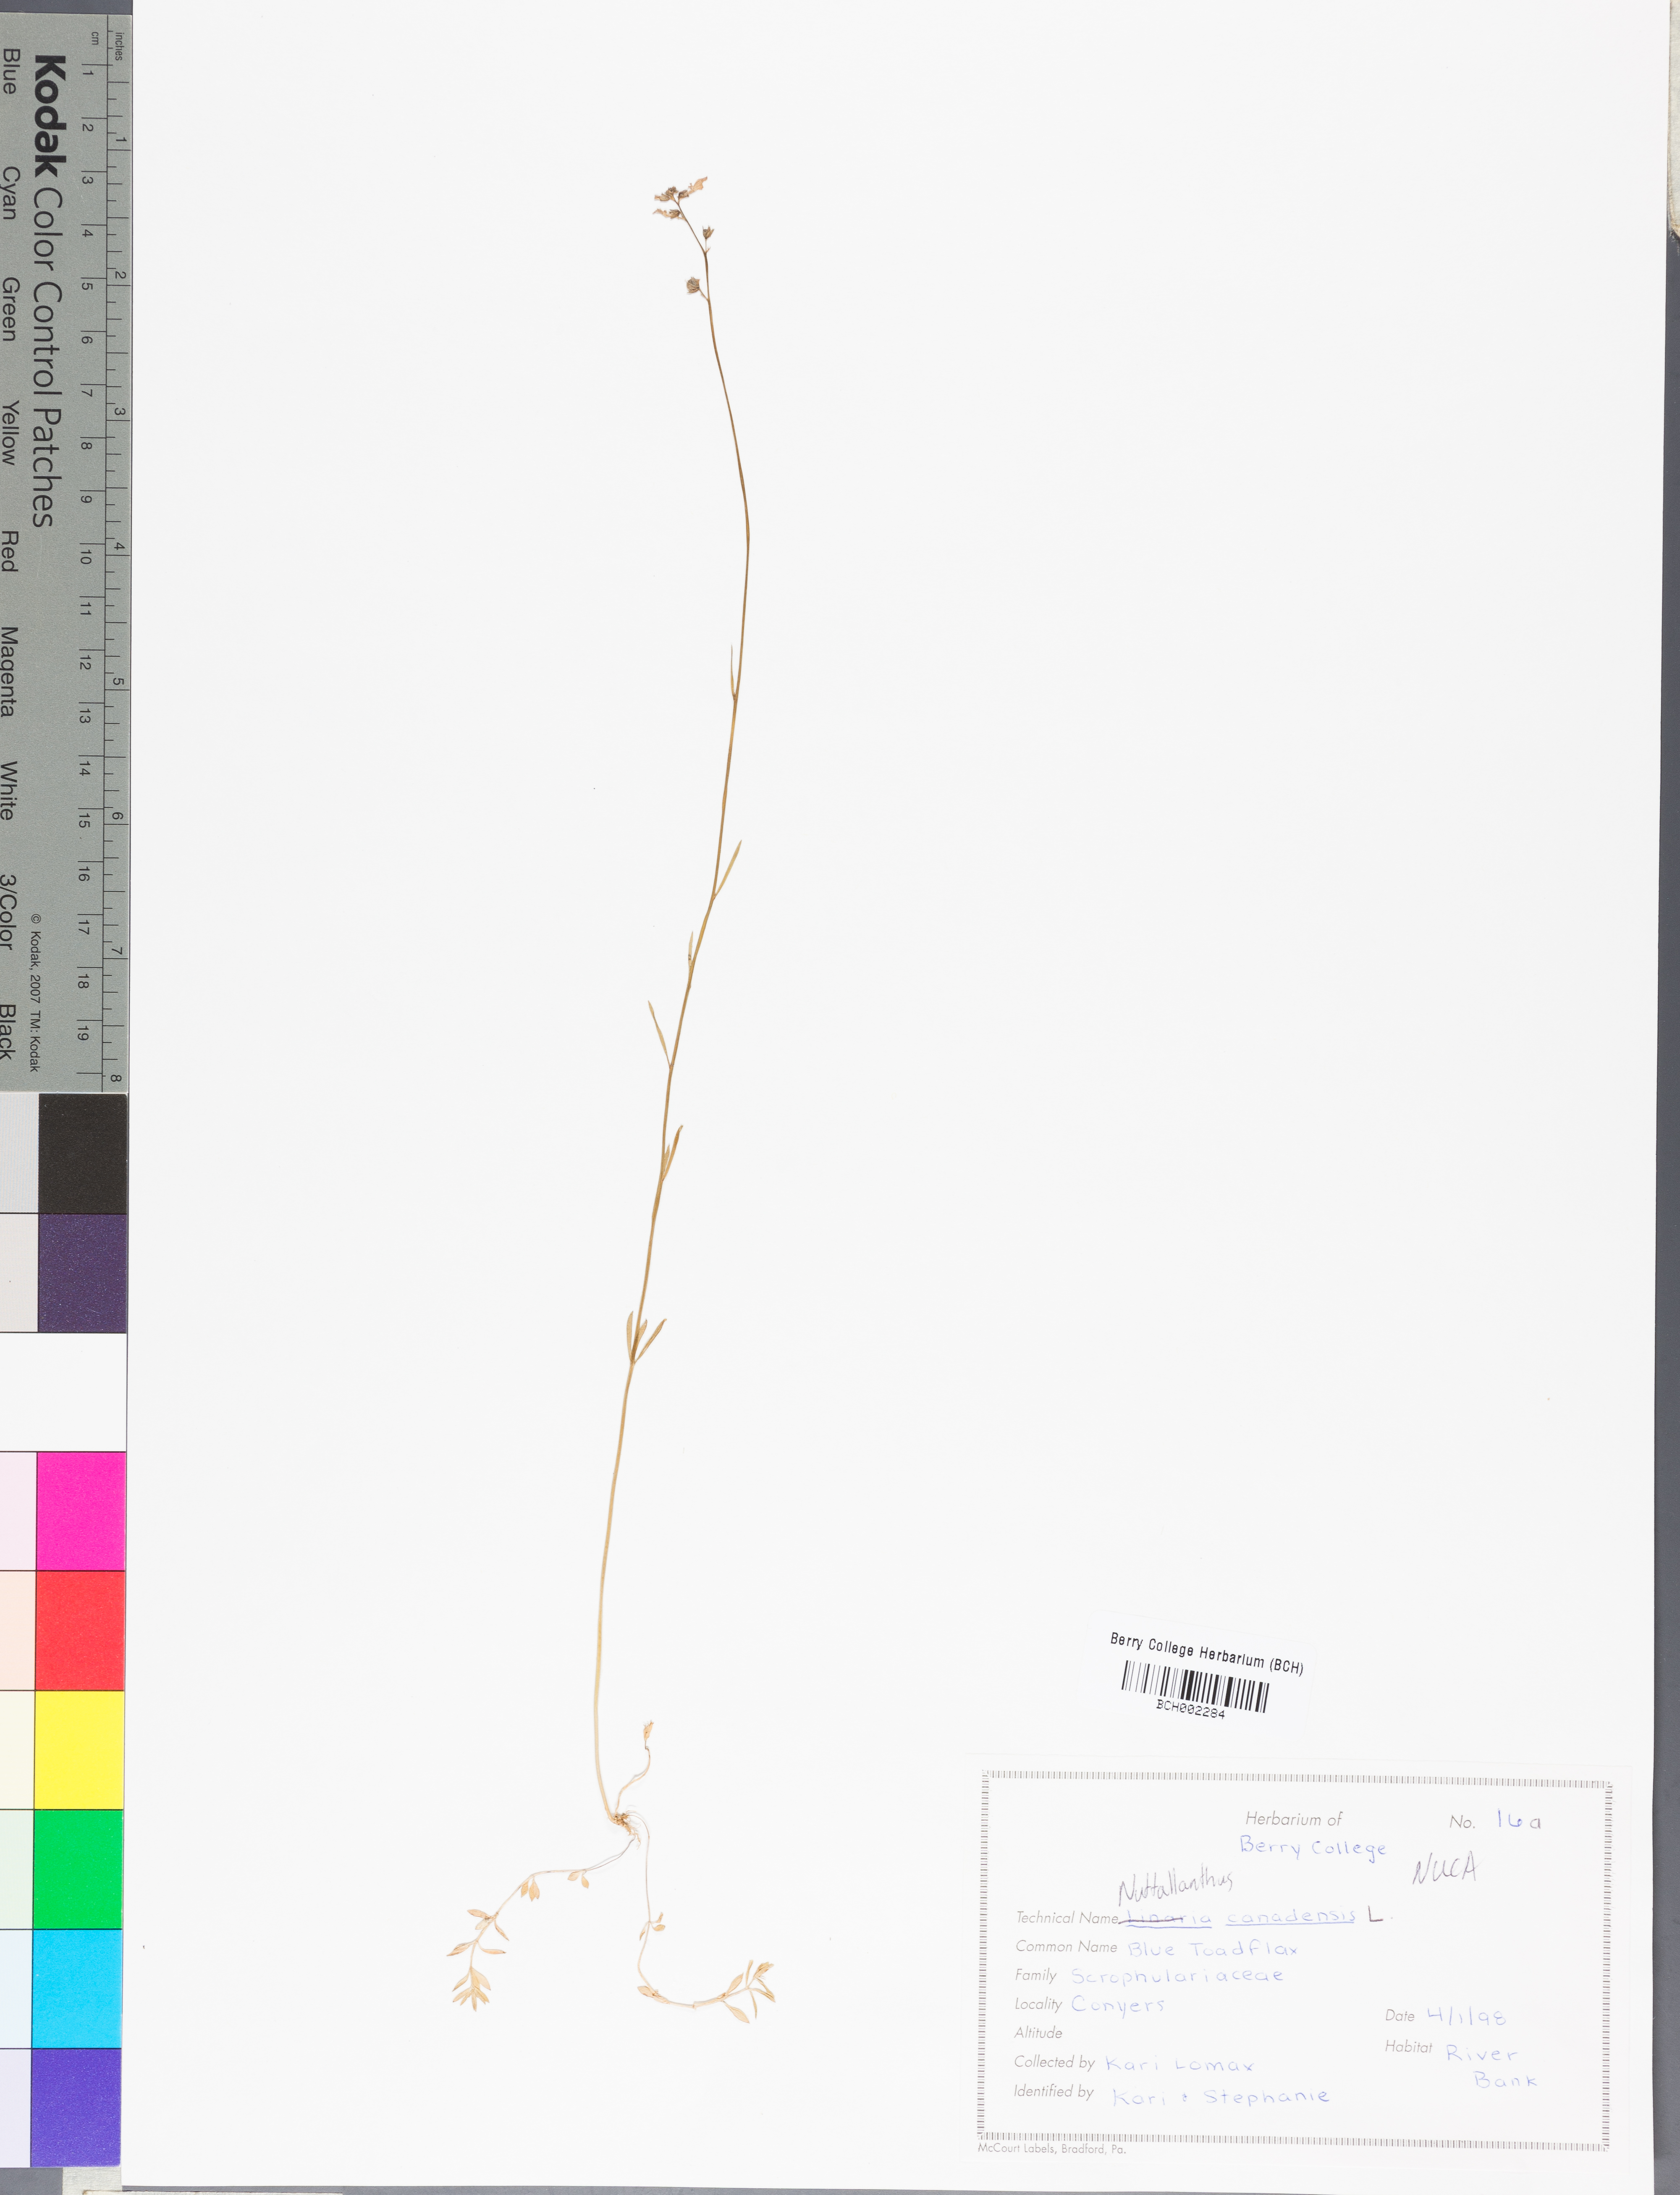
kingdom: Plantae
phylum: Tracheophyta
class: Magnoliopsida
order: Lamiales
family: Plantaginaceae
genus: Nuttallanthus
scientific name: Nuttallanthus canadensis
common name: Blue toadflax
